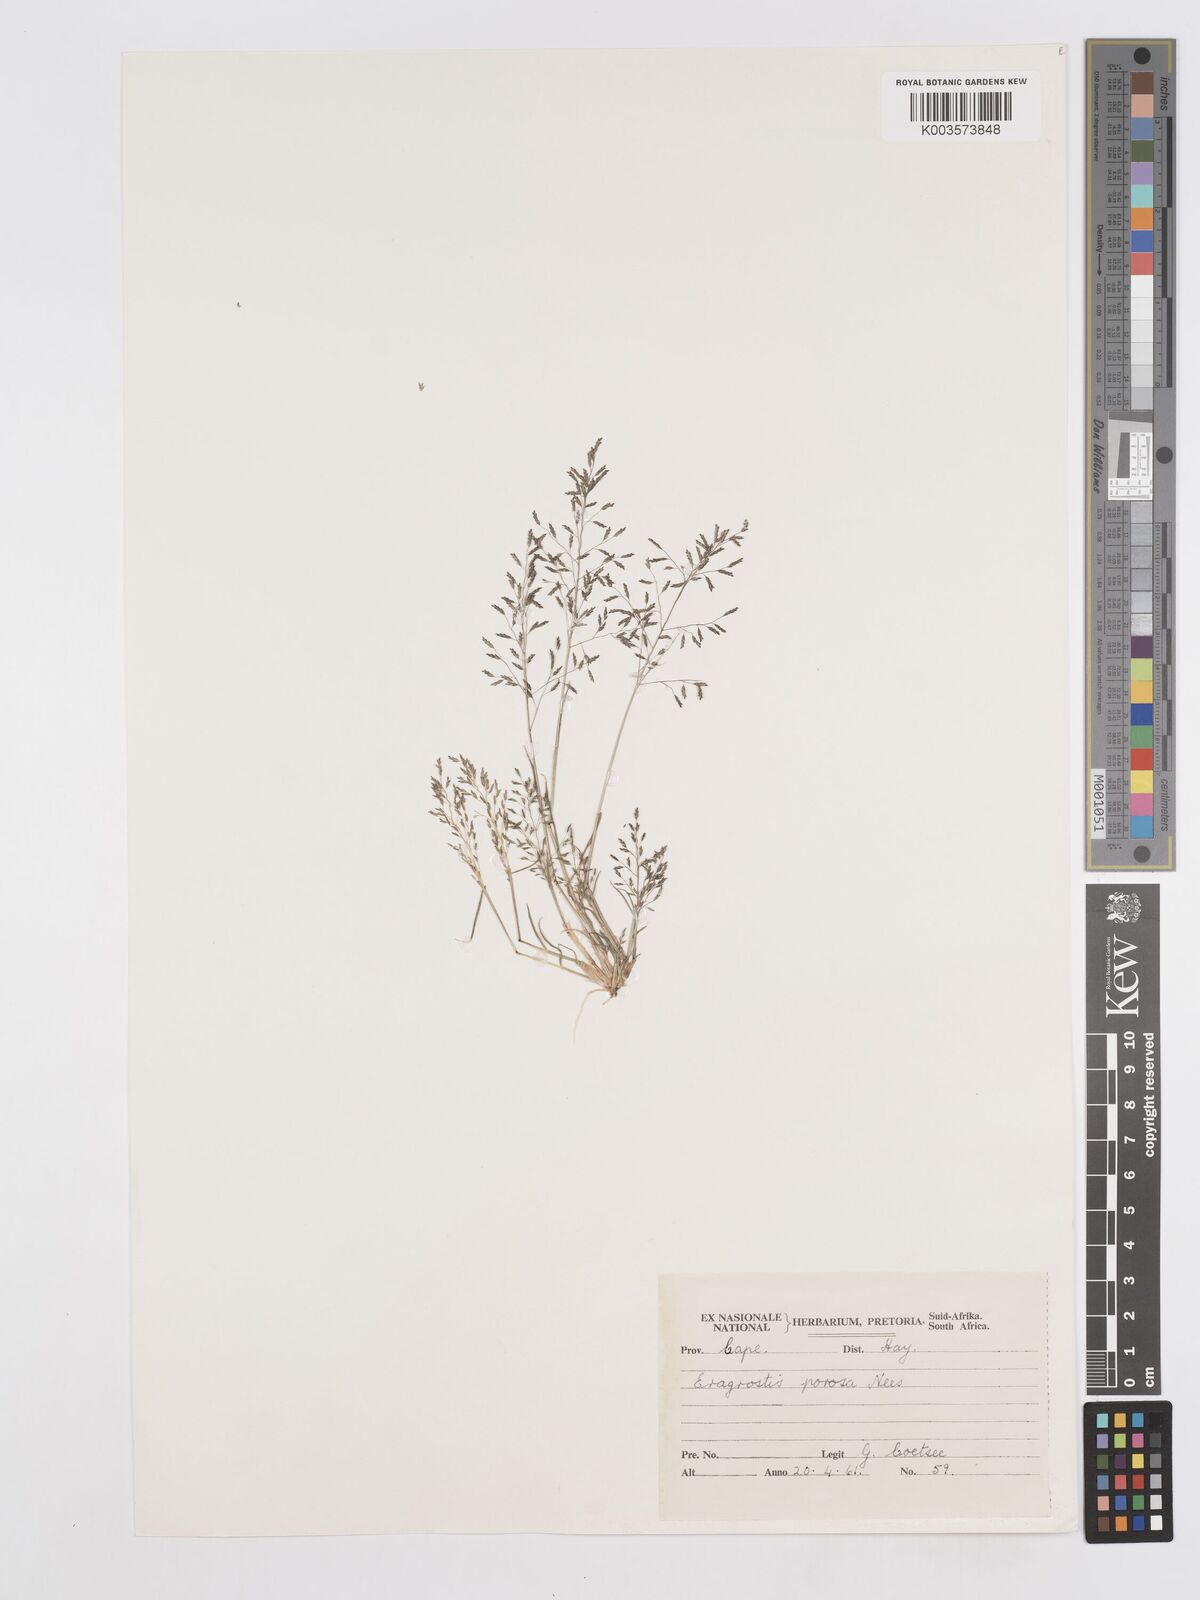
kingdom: Plantae
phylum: Tracheophyta
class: Liliopsida
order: Poales
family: Poaceae
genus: Eragrostis
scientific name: Eragrostis porosa
